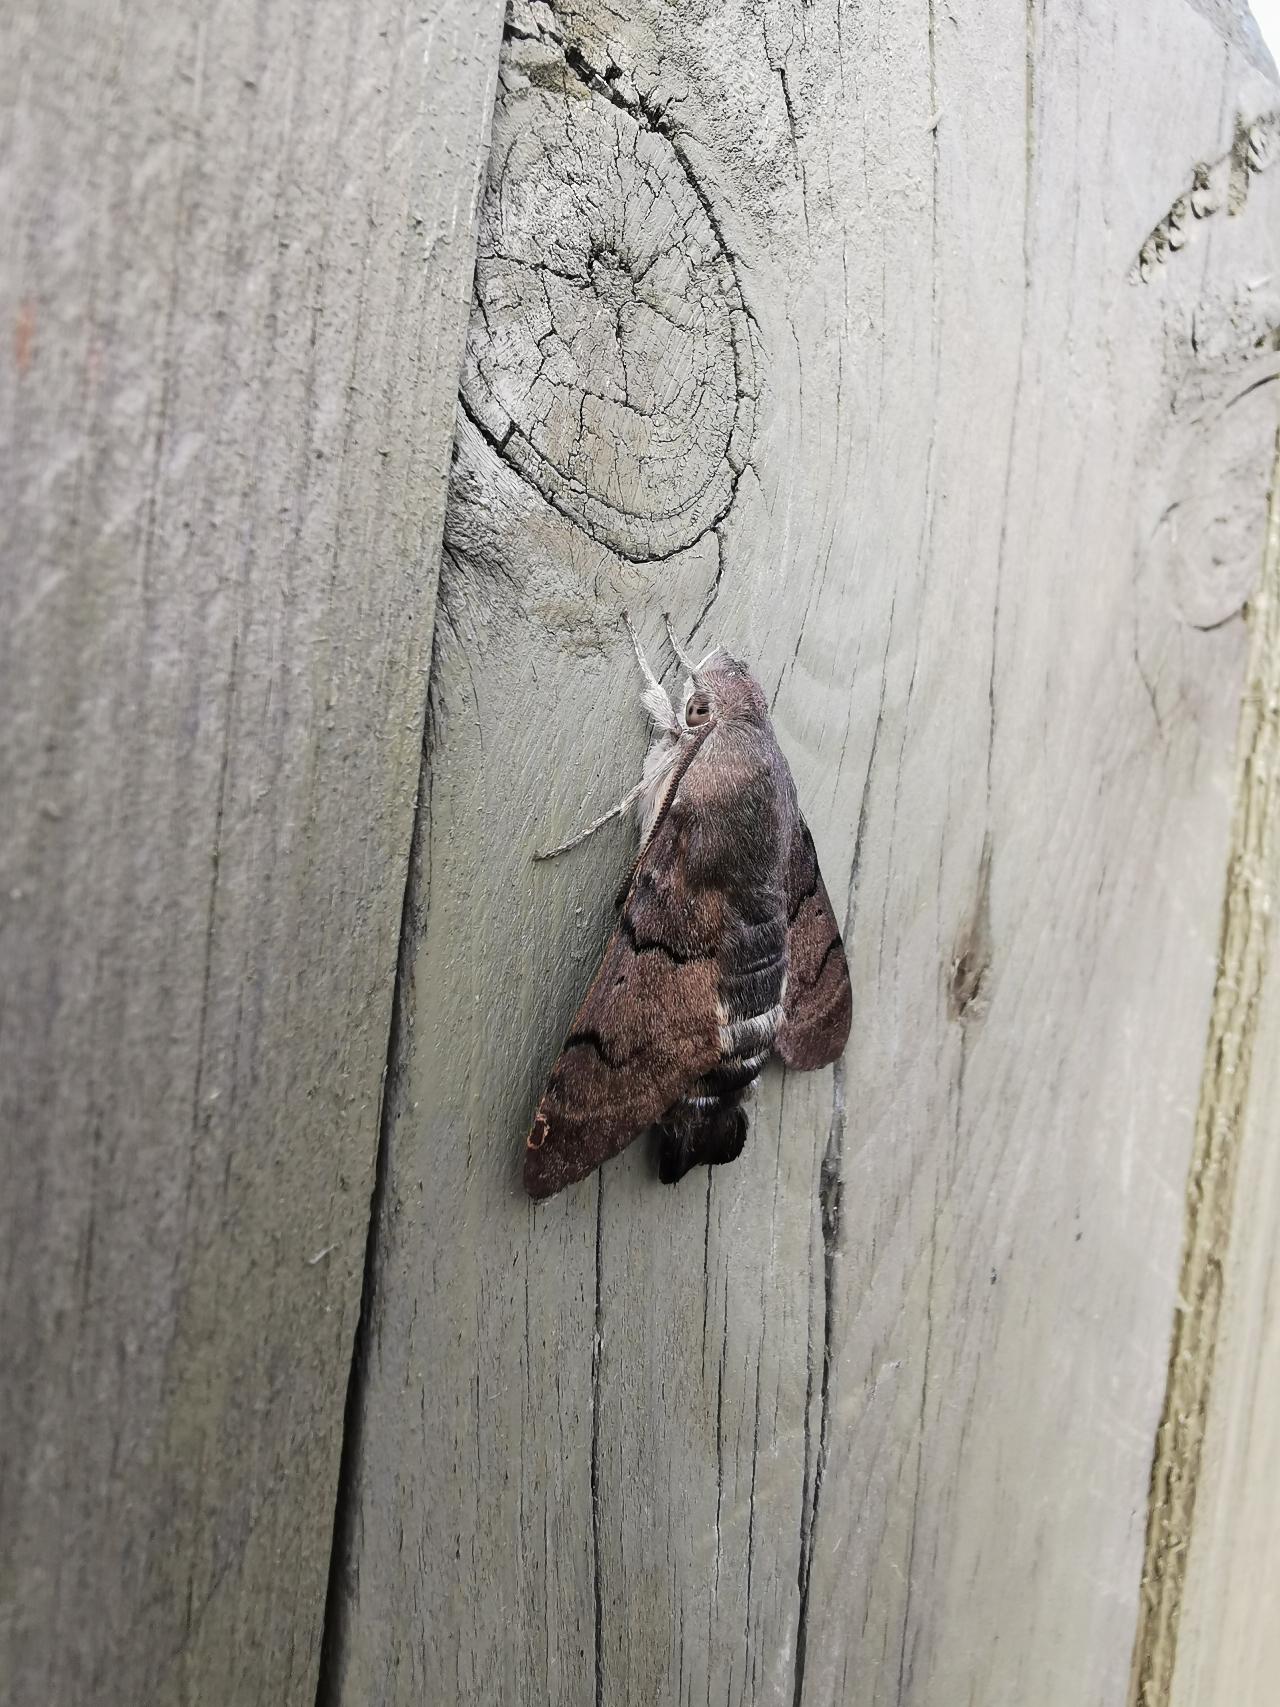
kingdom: Animalia
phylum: Arthropoda
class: Insecta
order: Lepidoptera
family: Sphingidae
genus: Macroglossum
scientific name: Macroglossum stellatarum
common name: Duehale
